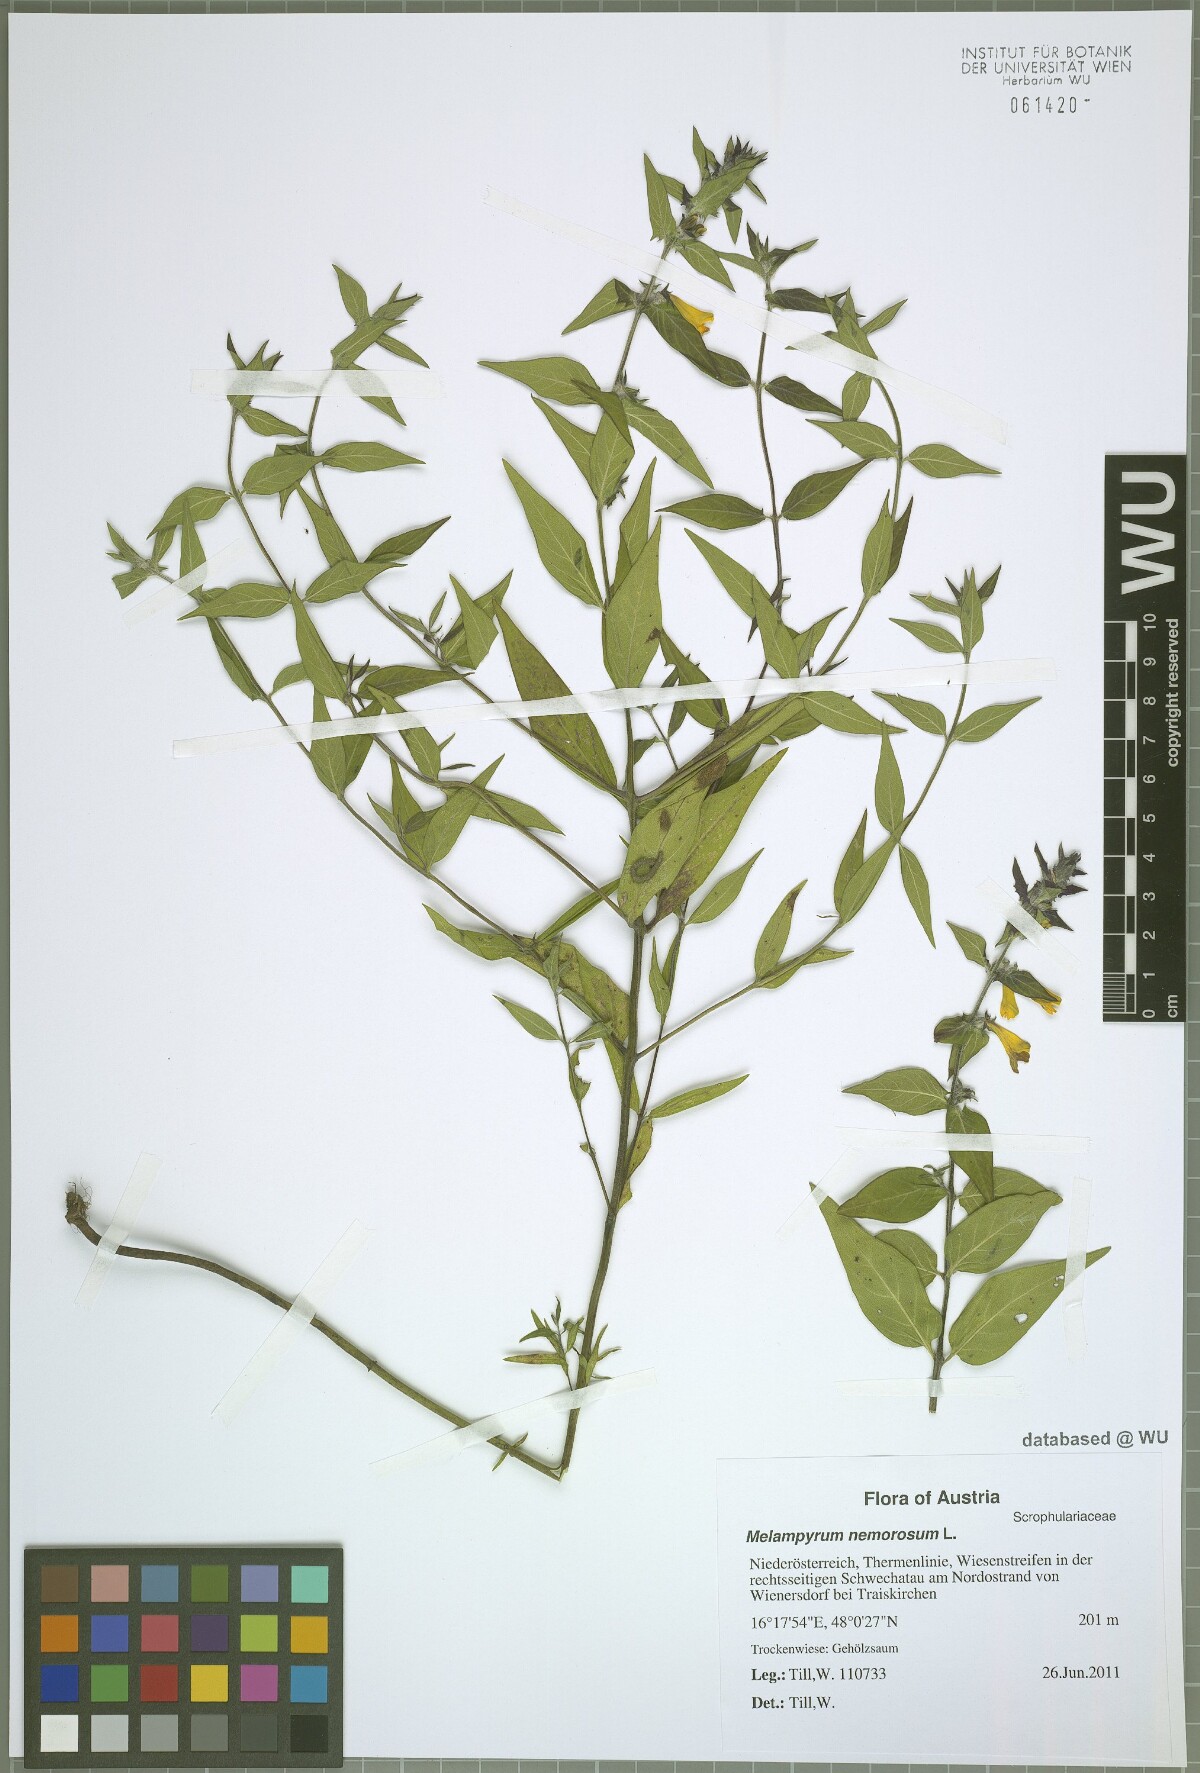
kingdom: Plantae
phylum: Tracheophyta
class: Magnoliopsida
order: Lamiales
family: Orobanchaceae
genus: Melampyrum
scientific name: Melampyrum nemorosum
